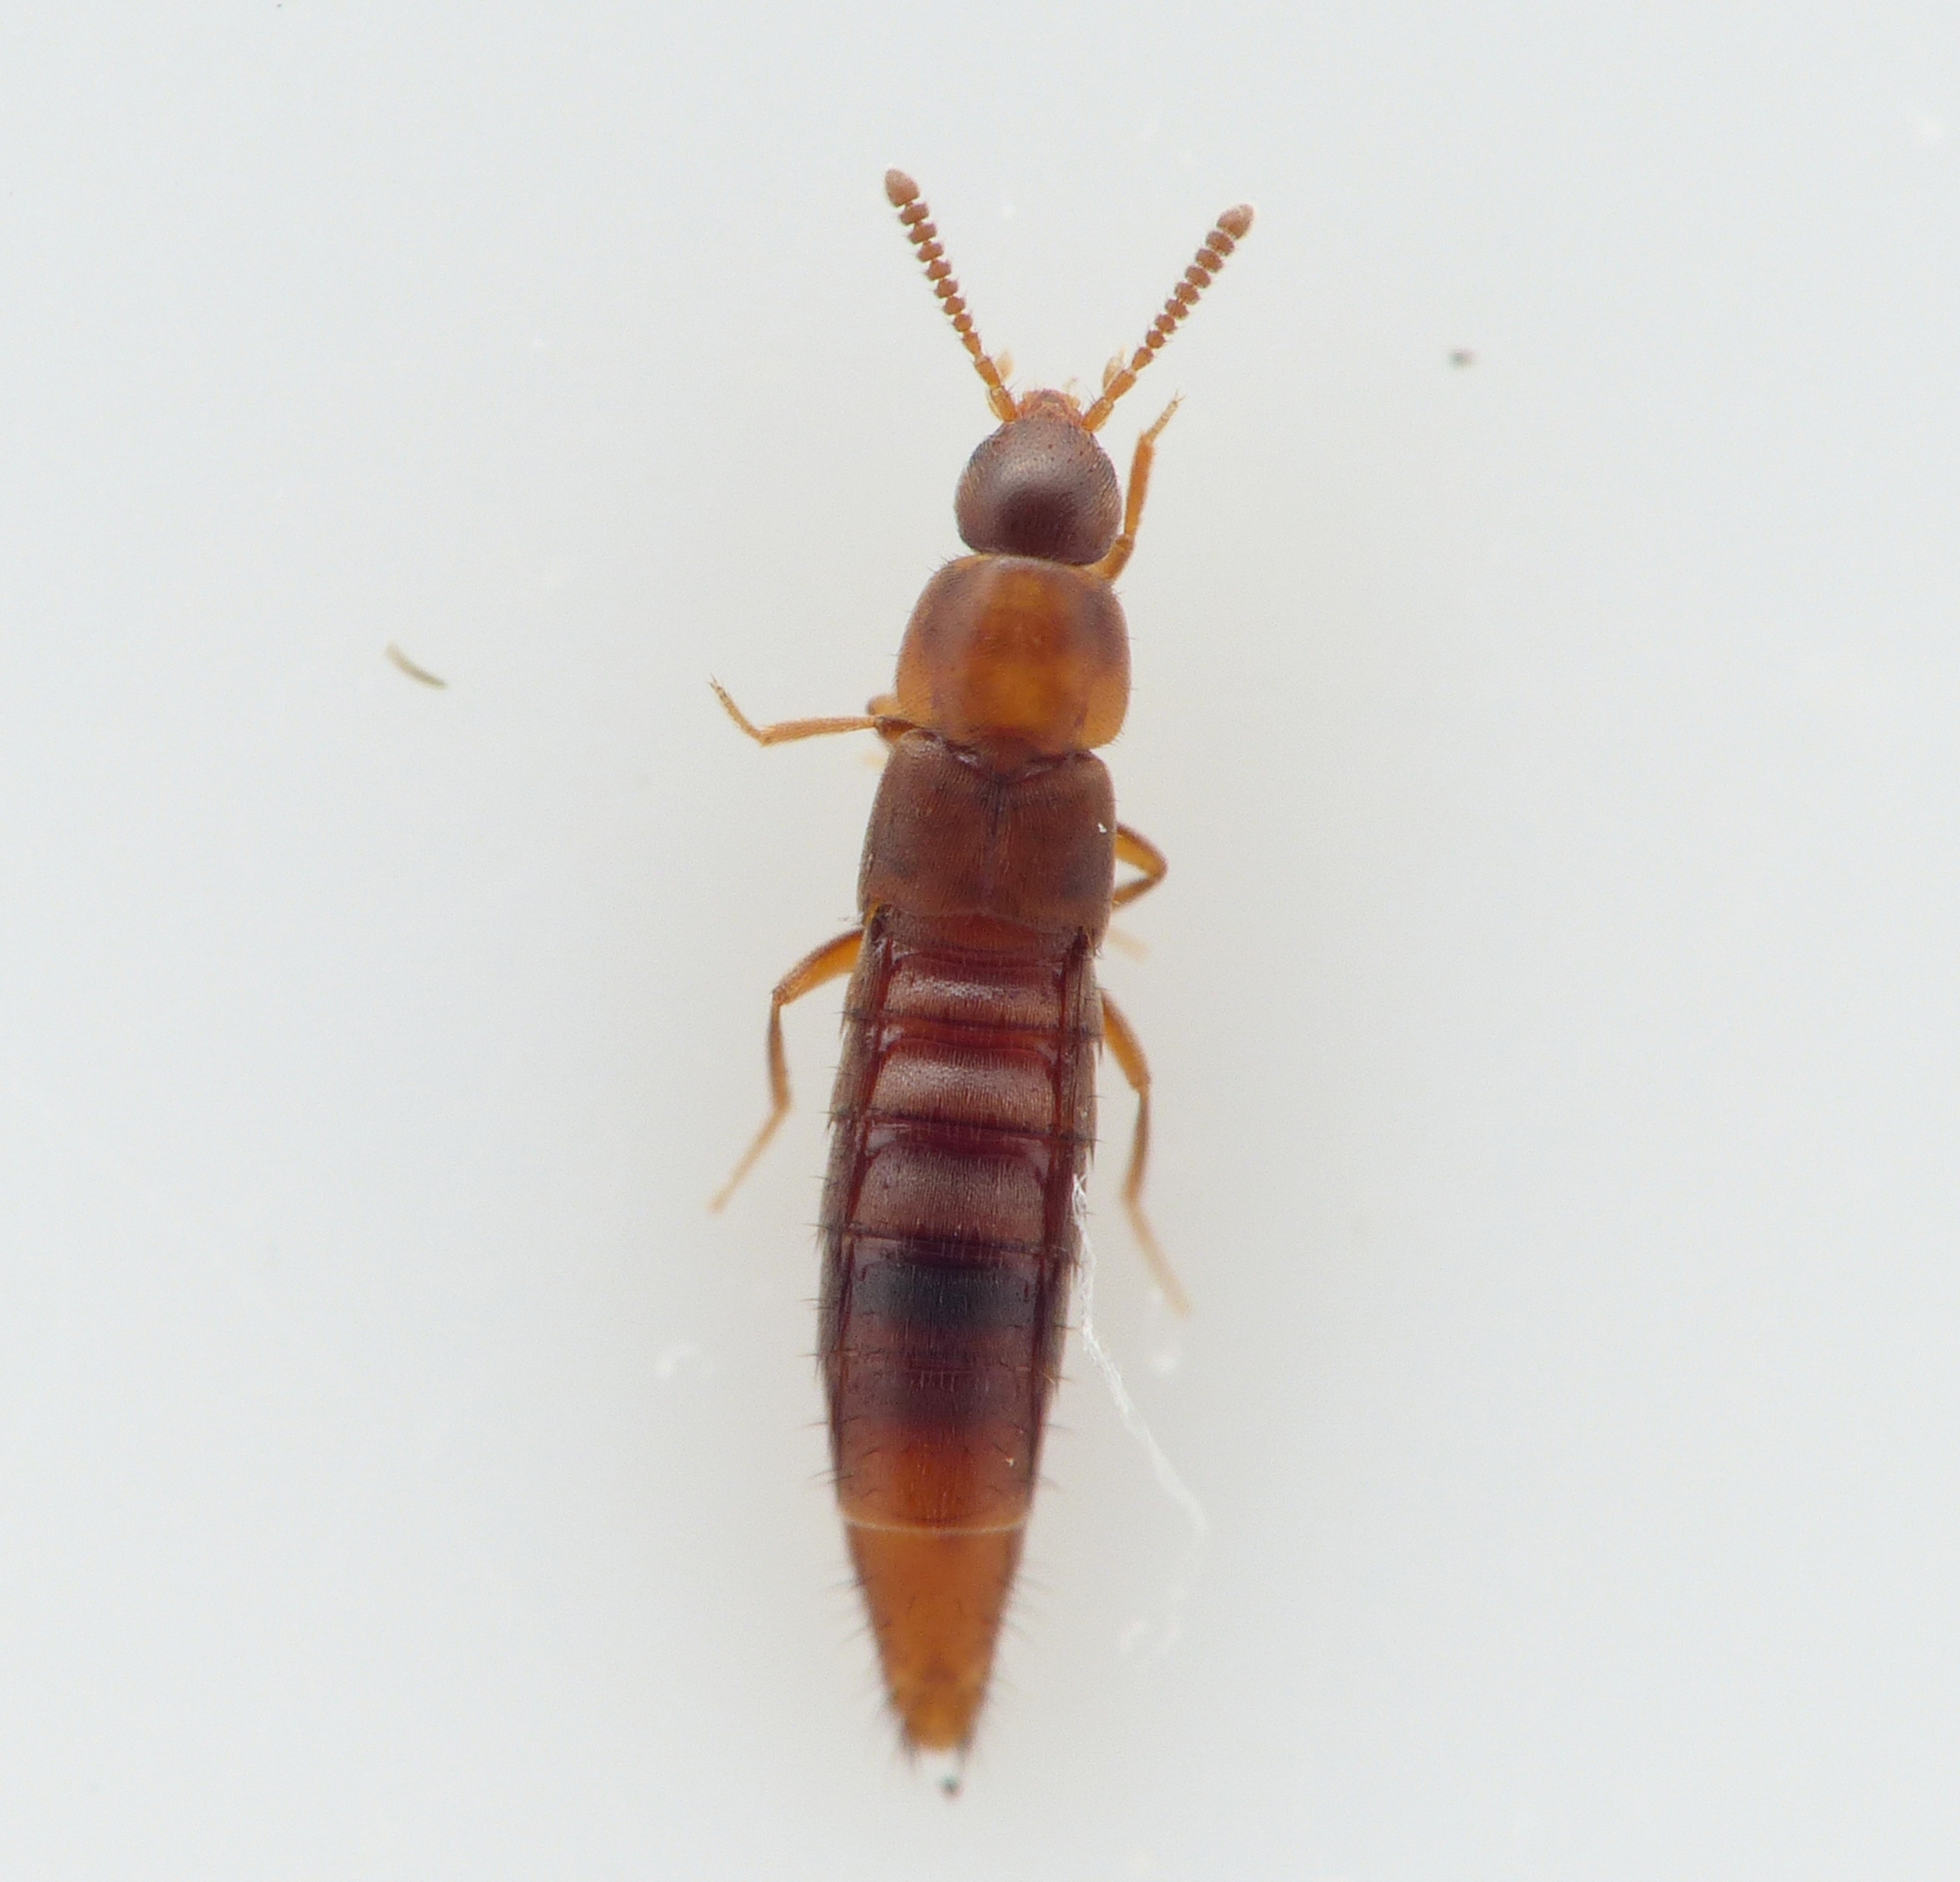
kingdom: Animalia
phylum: Arthropoda
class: Insecta
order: Coleoptera
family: Staphylinidae
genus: Oxypoda
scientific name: Oxypoda annularis
